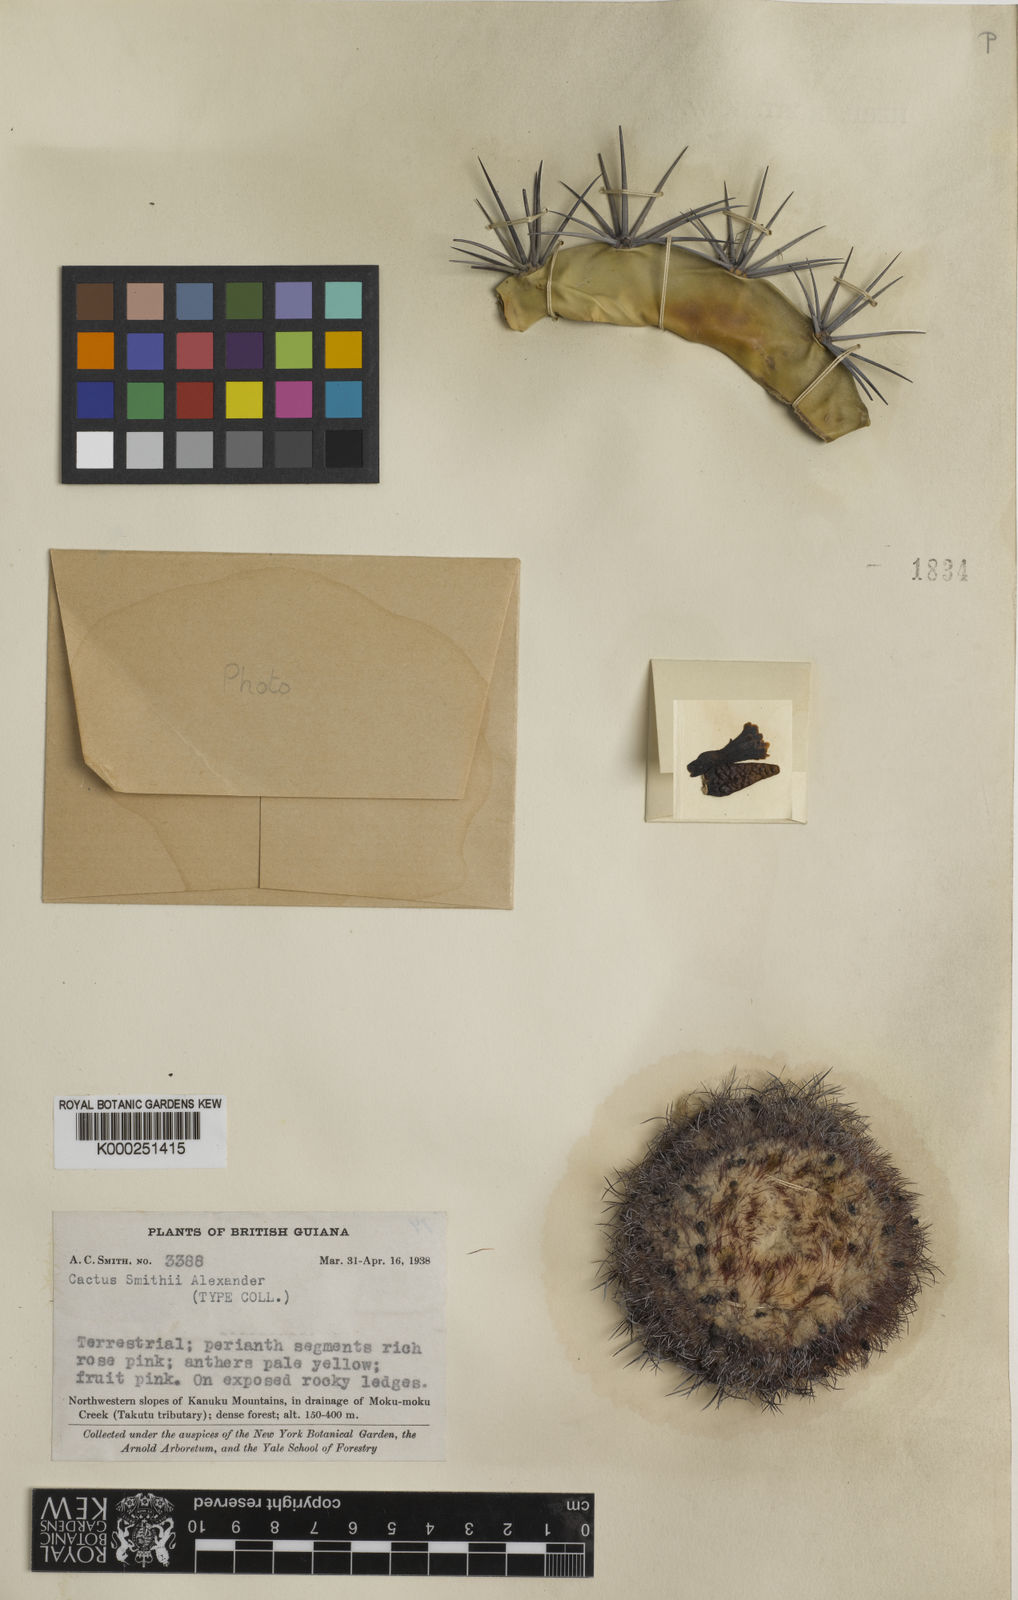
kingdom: Plantae
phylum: Tracheophyta
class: Magnoliopsida
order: Caryophyllales
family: Cactaceae
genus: Melocactus
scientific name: Melocactus smithii
